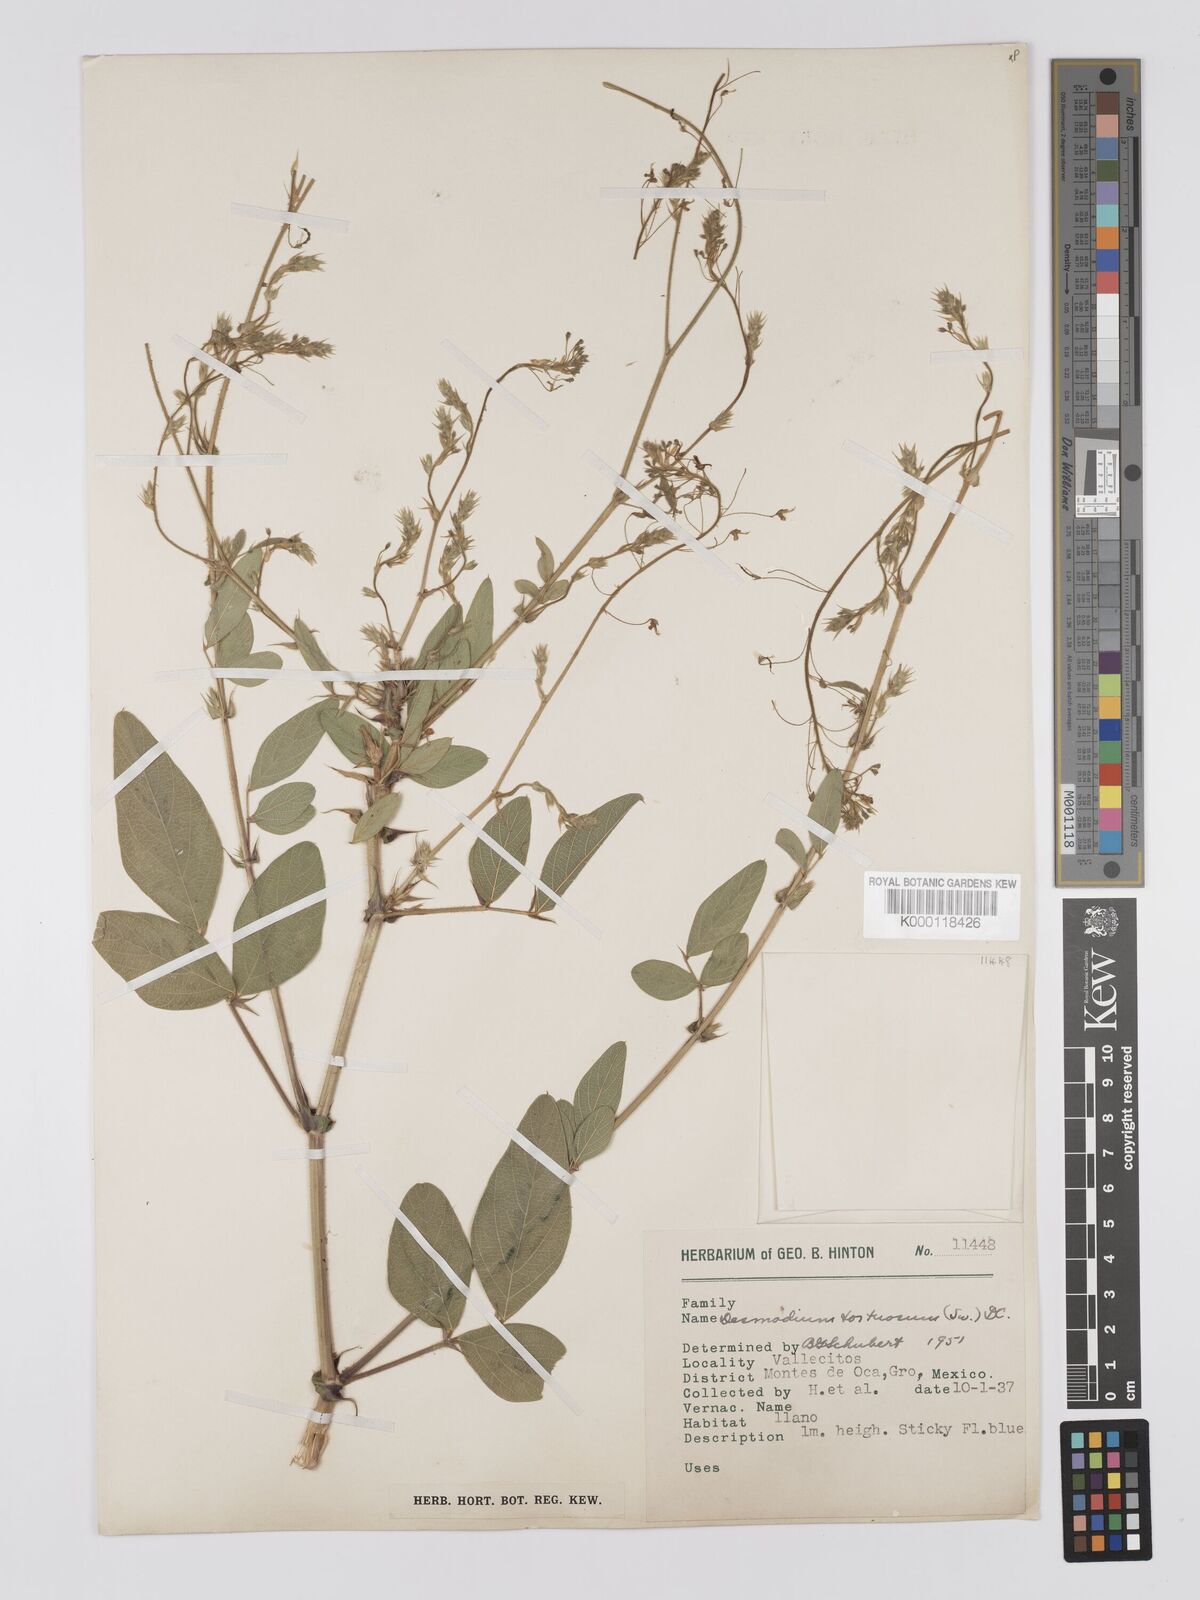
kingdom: Plantae
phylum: Tracheophyta
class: Magnoliopsida
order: Fabales
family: Fabaceae
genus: Desmodium
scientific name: Desmodium tortuosum
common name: Dixie ticktrefoil
